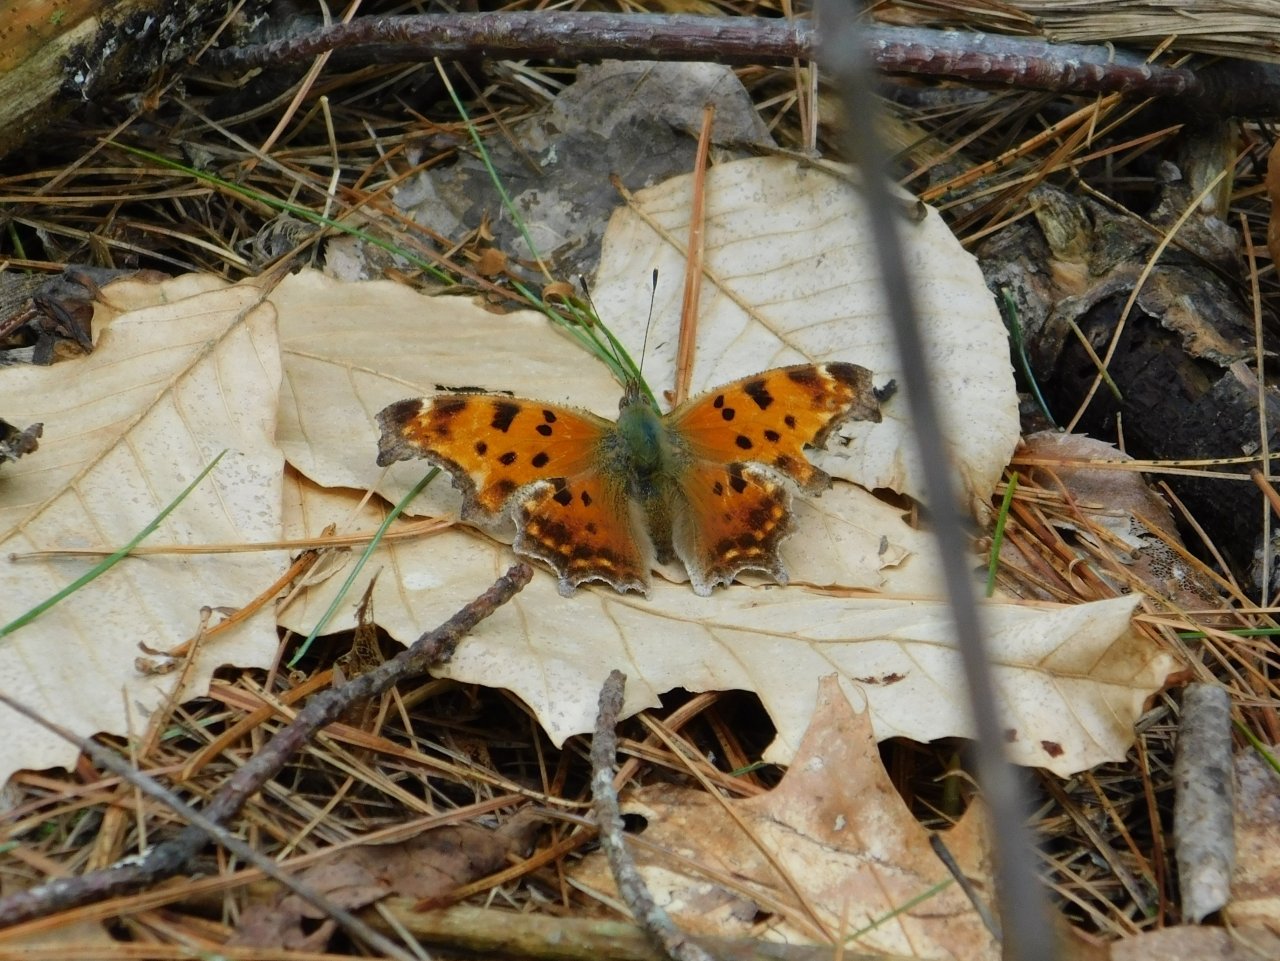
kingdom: Animalia
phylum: Arthropoda
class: Insecta
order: Lepidoptera
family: Nymphalidae
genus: Polygonia
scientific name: Polygonia comma
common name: Eastern Comma
